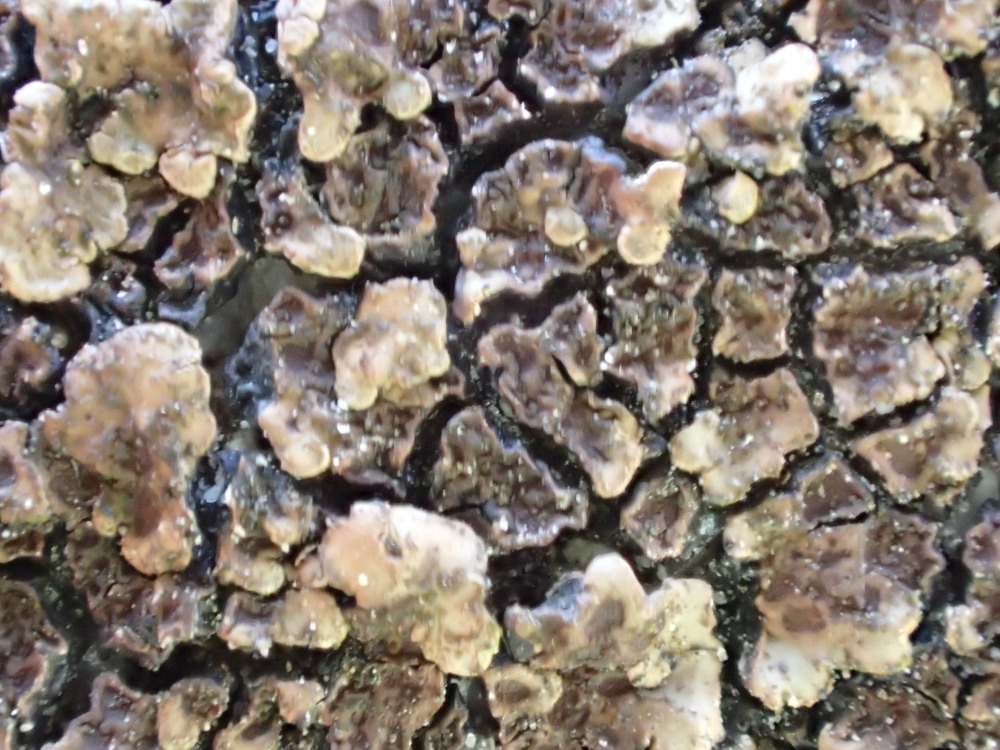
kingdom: Fungi
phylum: Ascomycota
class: Lecanoromycetes
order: Acarosporales
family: Acarosporaceae
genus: Acarospora
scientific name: Acarospora fuscata
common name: brun småsporelav
